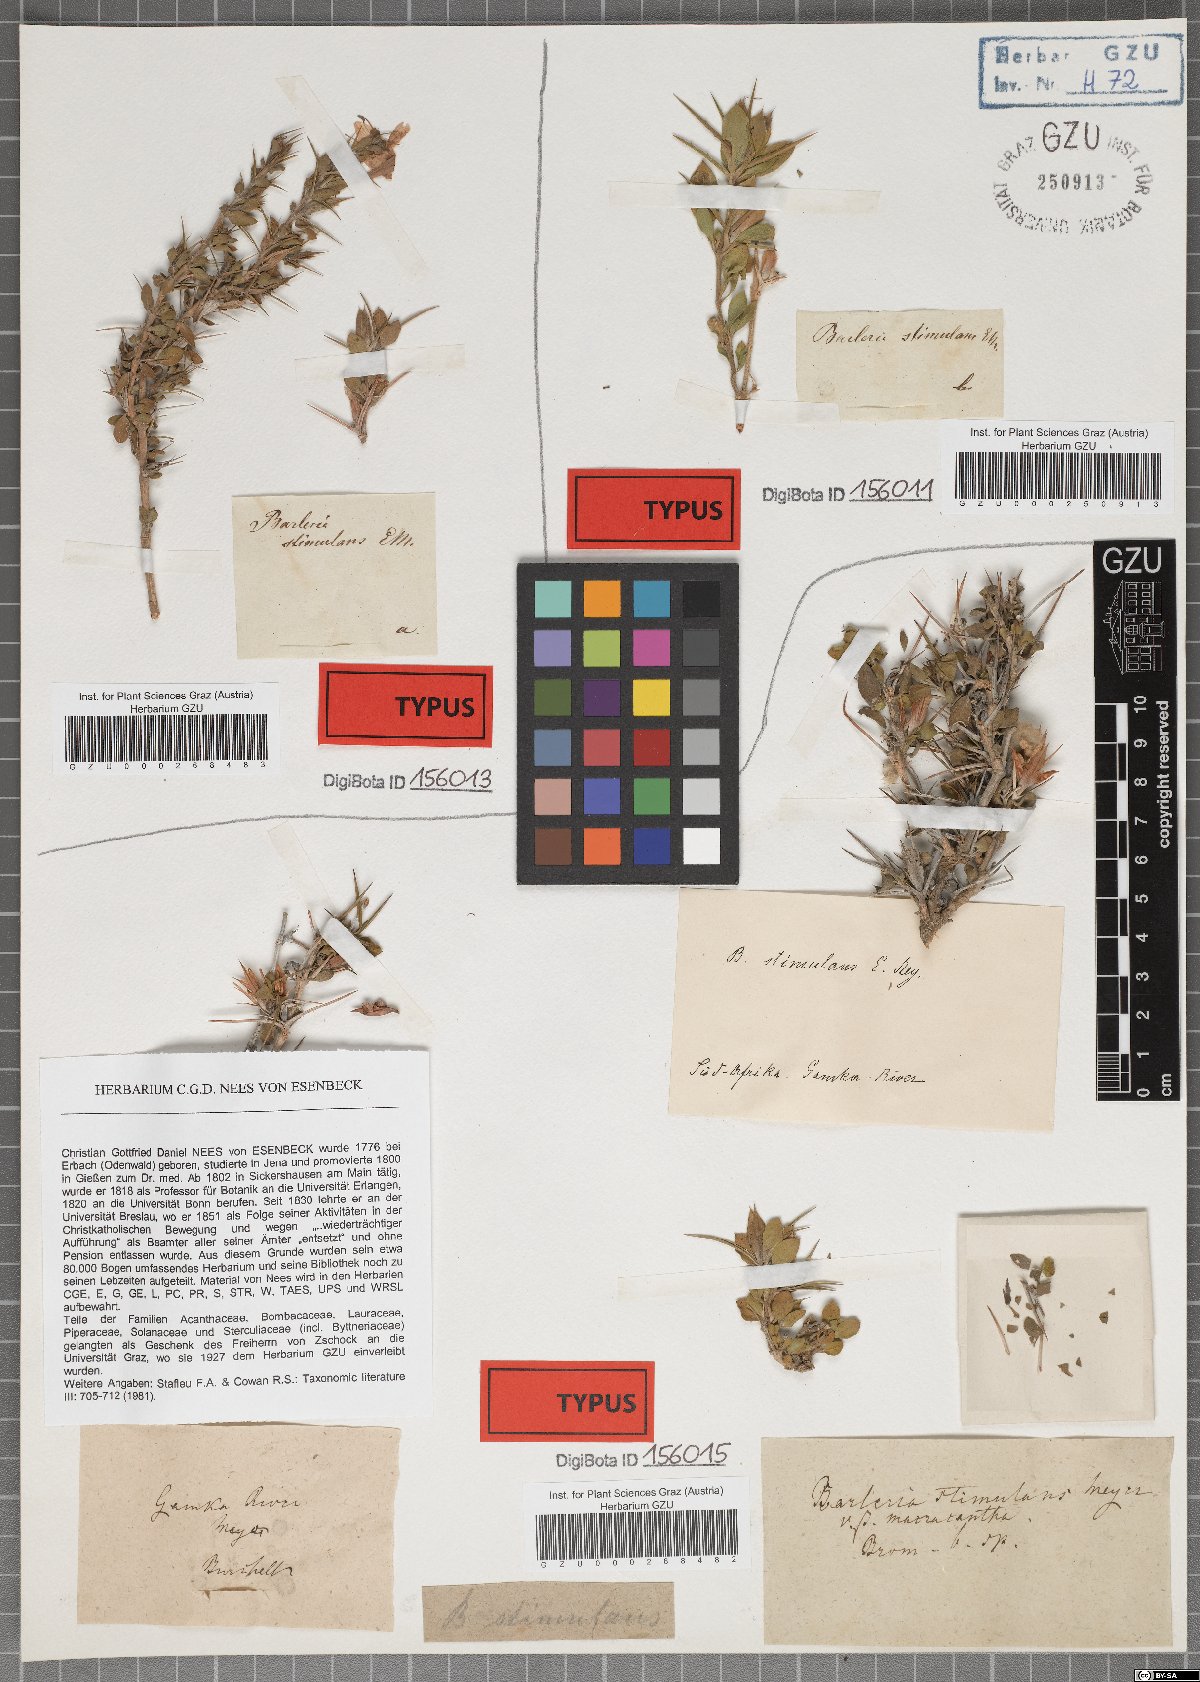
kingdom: Plantae
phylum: Tracheophyta
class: Magnoliopsida
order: Lamiales
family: Acanthaceae
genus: Barleria
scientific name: Barleria rigida
